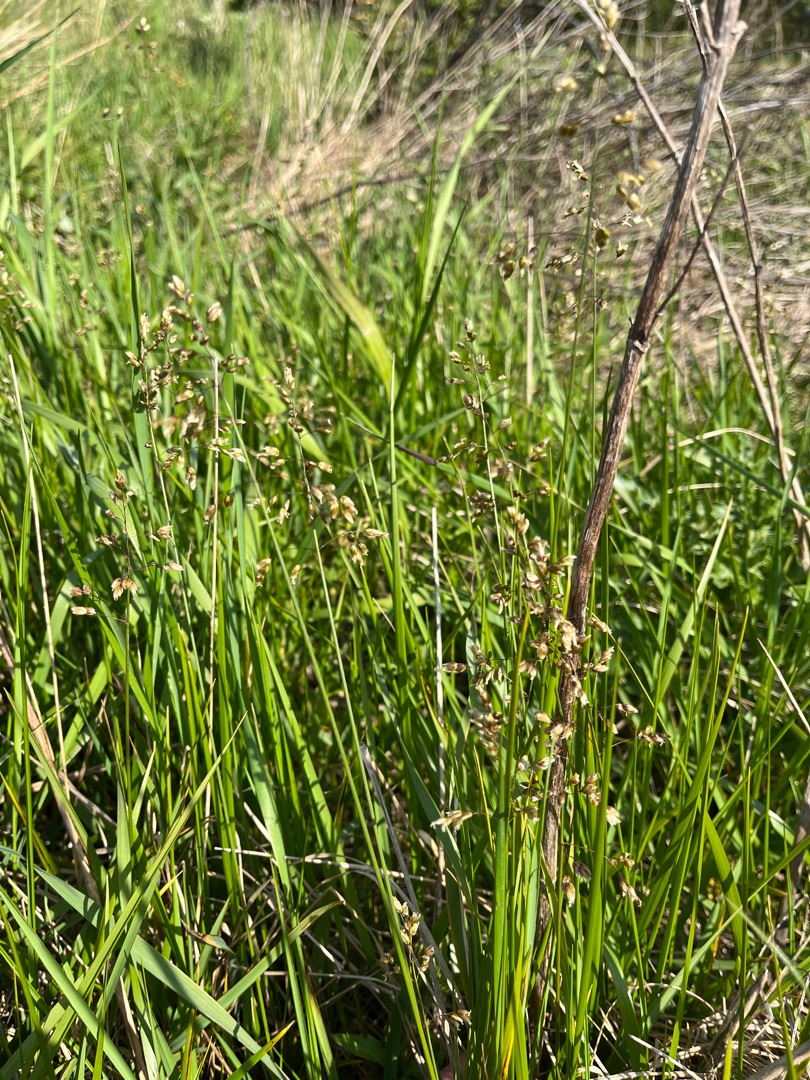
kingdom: Plantae
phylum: Tracheophyta
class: Liliopsida
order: Poales
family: Poaceae
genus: Anthoxanthum
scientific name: Anthoxanthum nitens
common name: Festgræs
